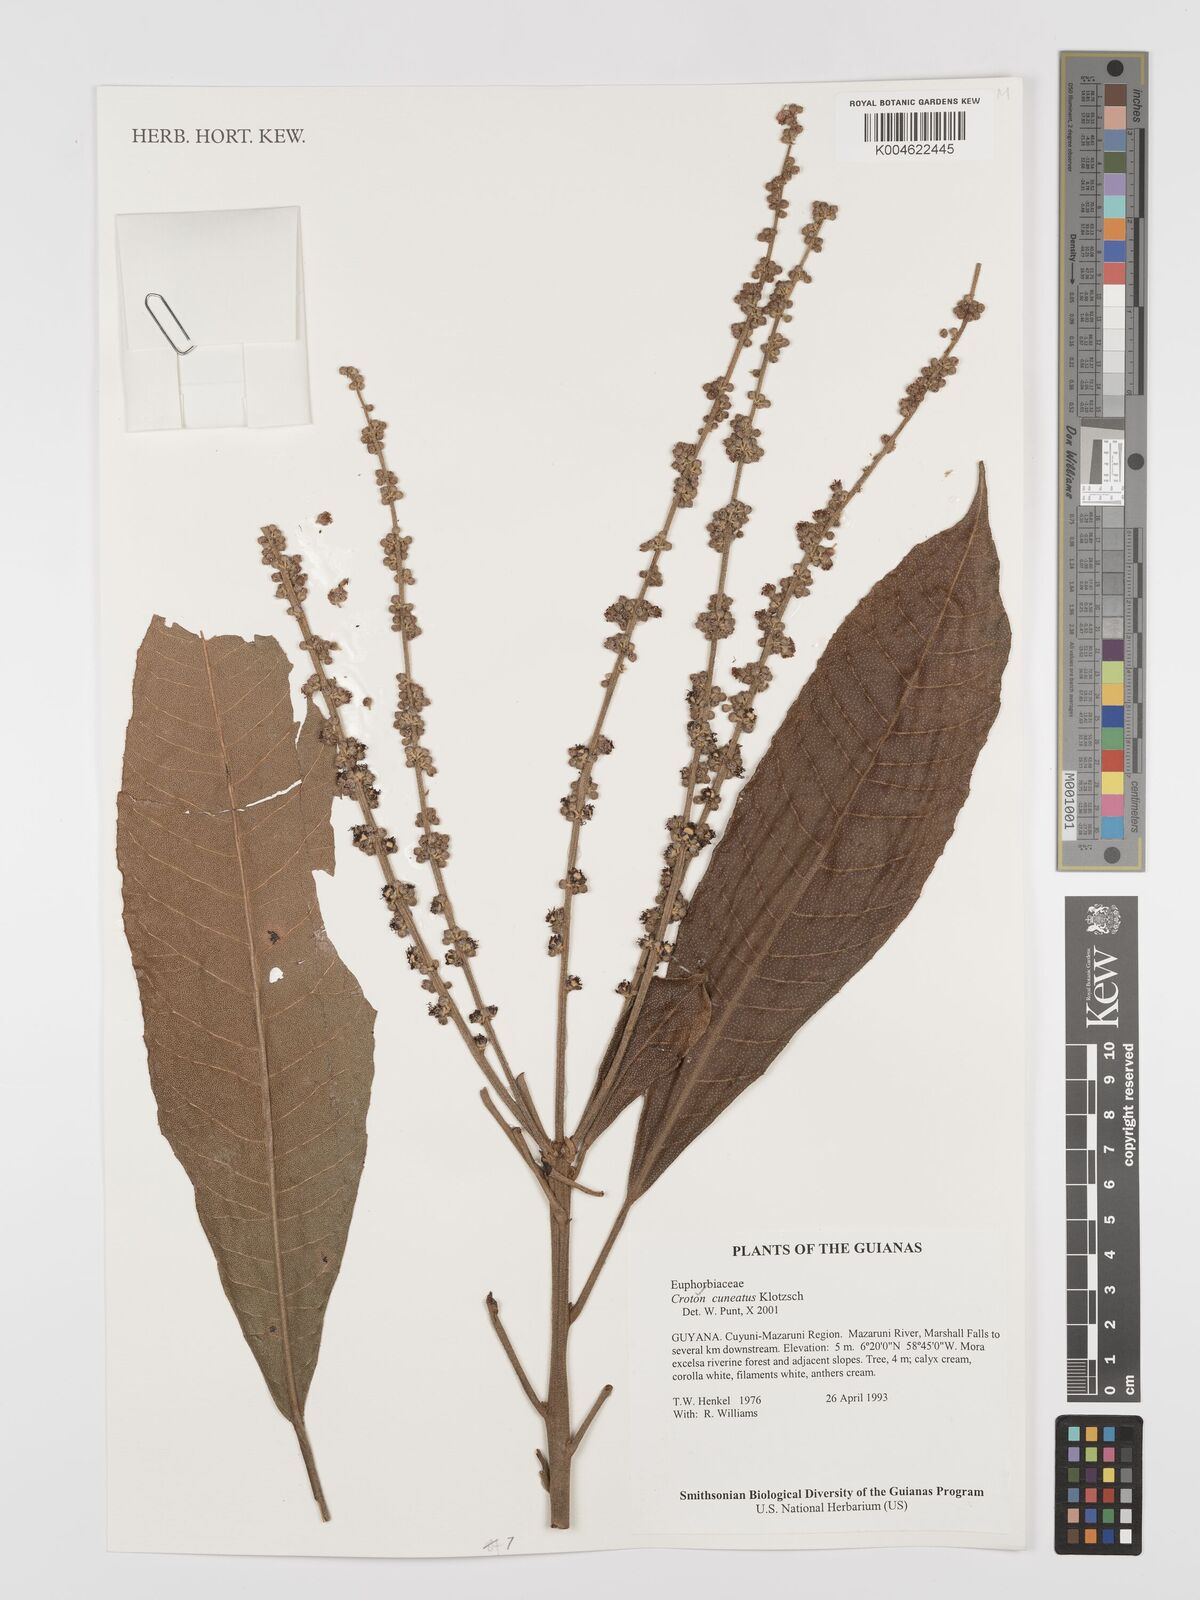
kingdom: Plantae
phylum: Tracheophyta
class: Magnoliopsida
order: Malpighiales
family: Euphorbiaceae
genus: Croton
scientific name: Croton
